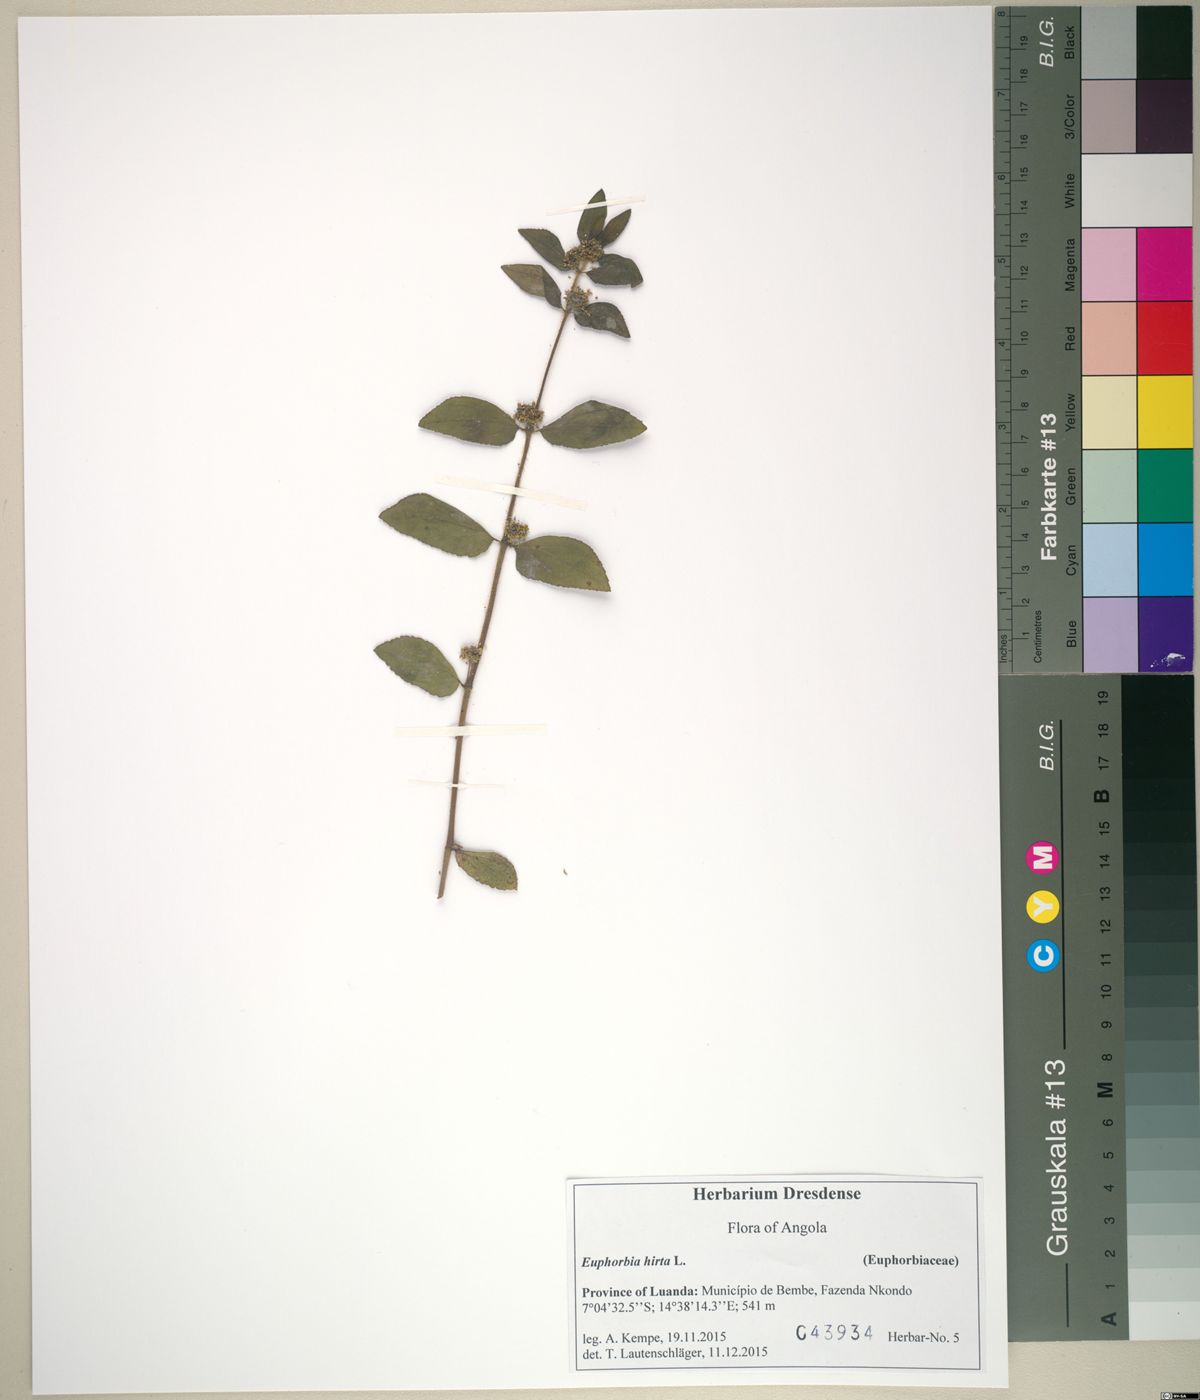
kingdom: Plantae
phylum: Tracheophyta
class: Magnoliopsida
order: Malpighiales
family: Euphorbiaceae
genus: Euphorbia
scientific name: Euphorbia hirta
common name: Pillpod sandmat
